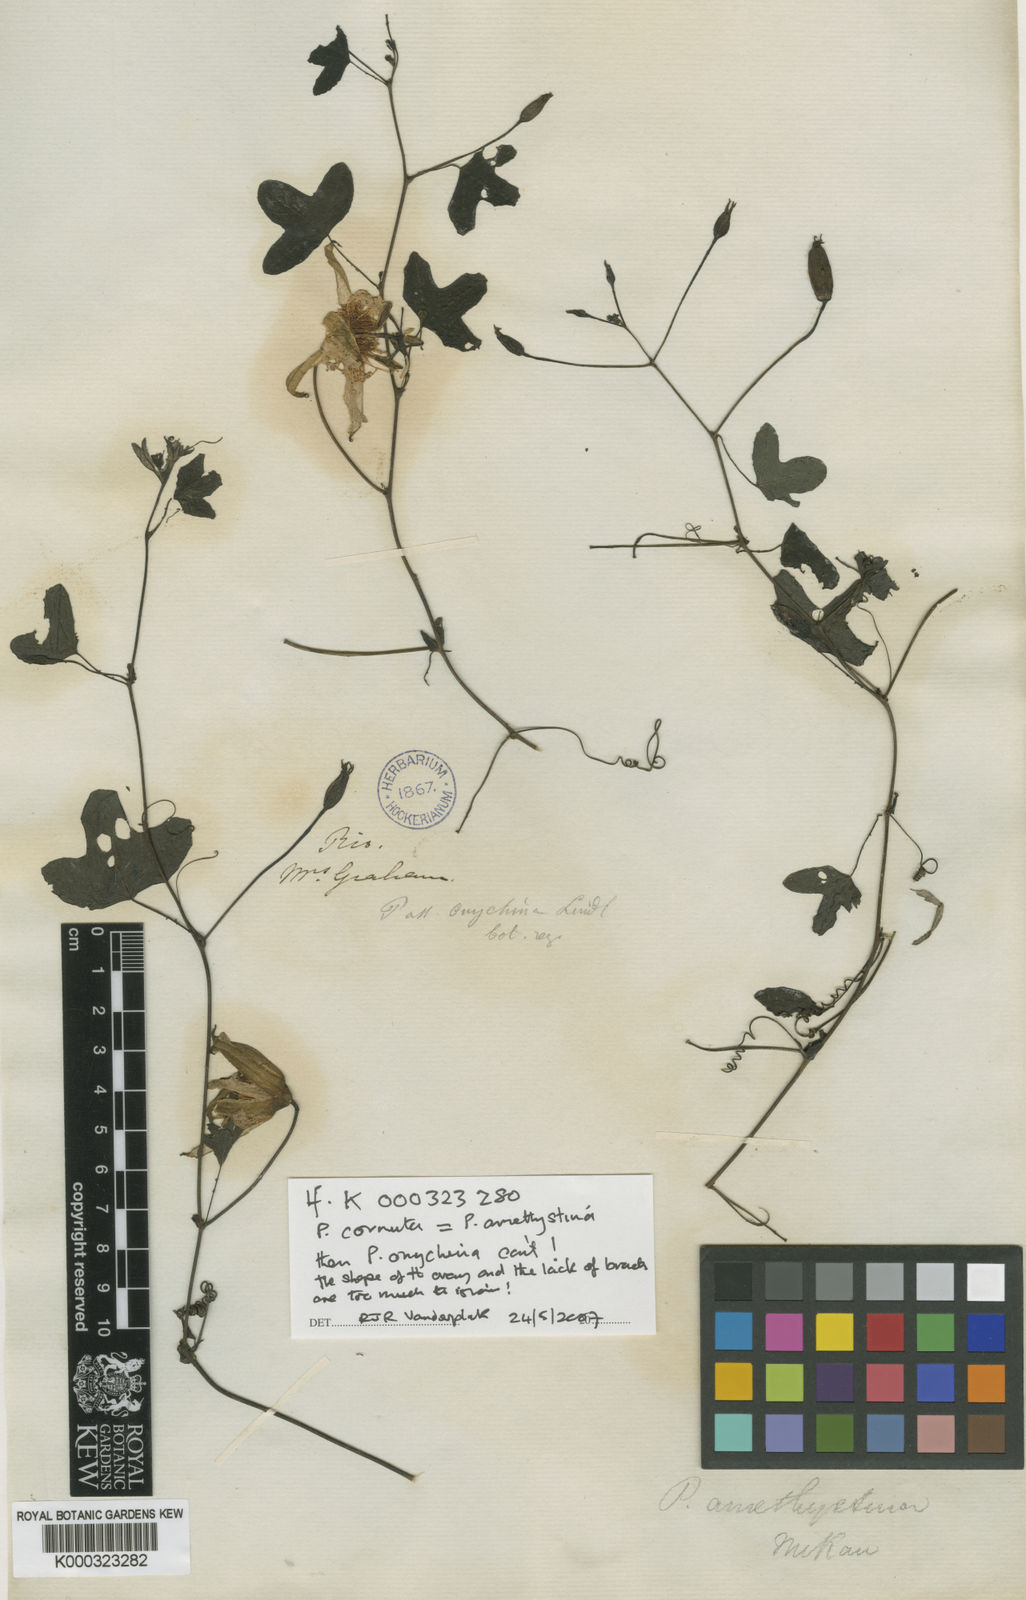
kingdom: Plantae
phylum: Tracheophyta
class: Magnoliopsida
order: Malpighiales
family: Passifloraceae
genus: Passiflora
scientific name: Passiflora amethystina
